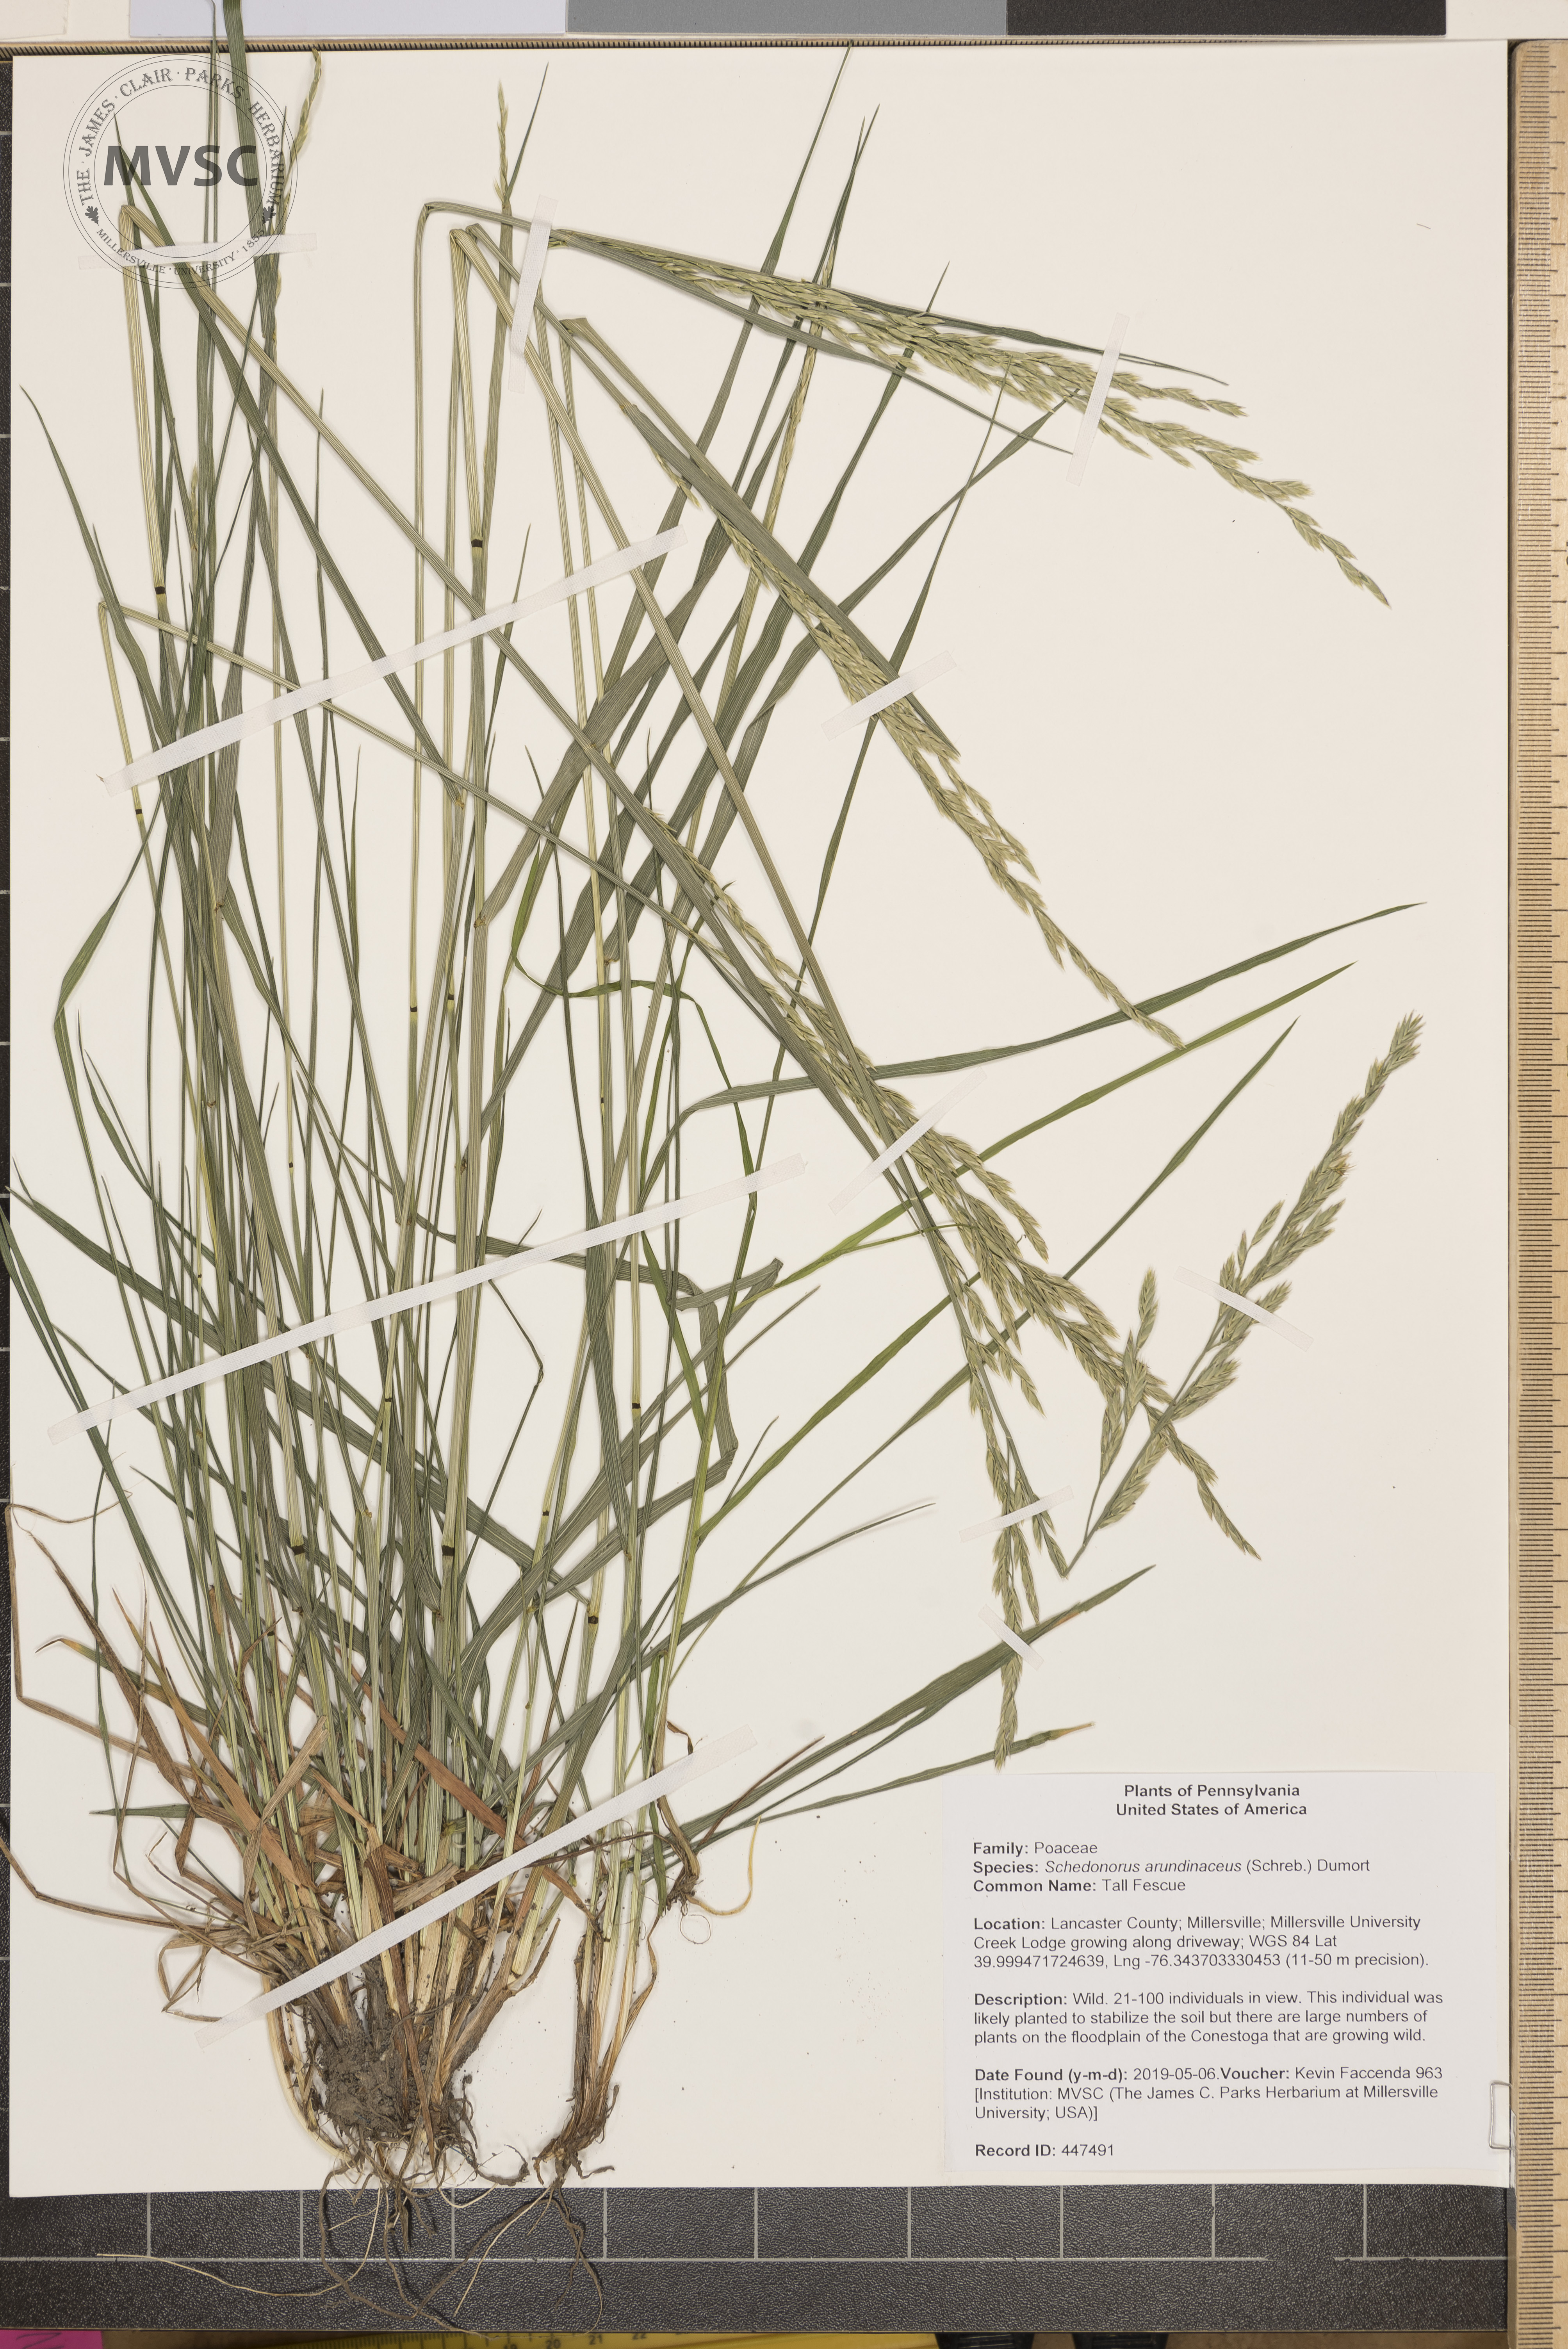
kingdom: Plantae
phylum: Tracheophyta
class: Liliopsida
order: Poales
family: Poaceae
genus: Lolium
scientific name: Lolium arundinaceum
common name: Tall Fescue
